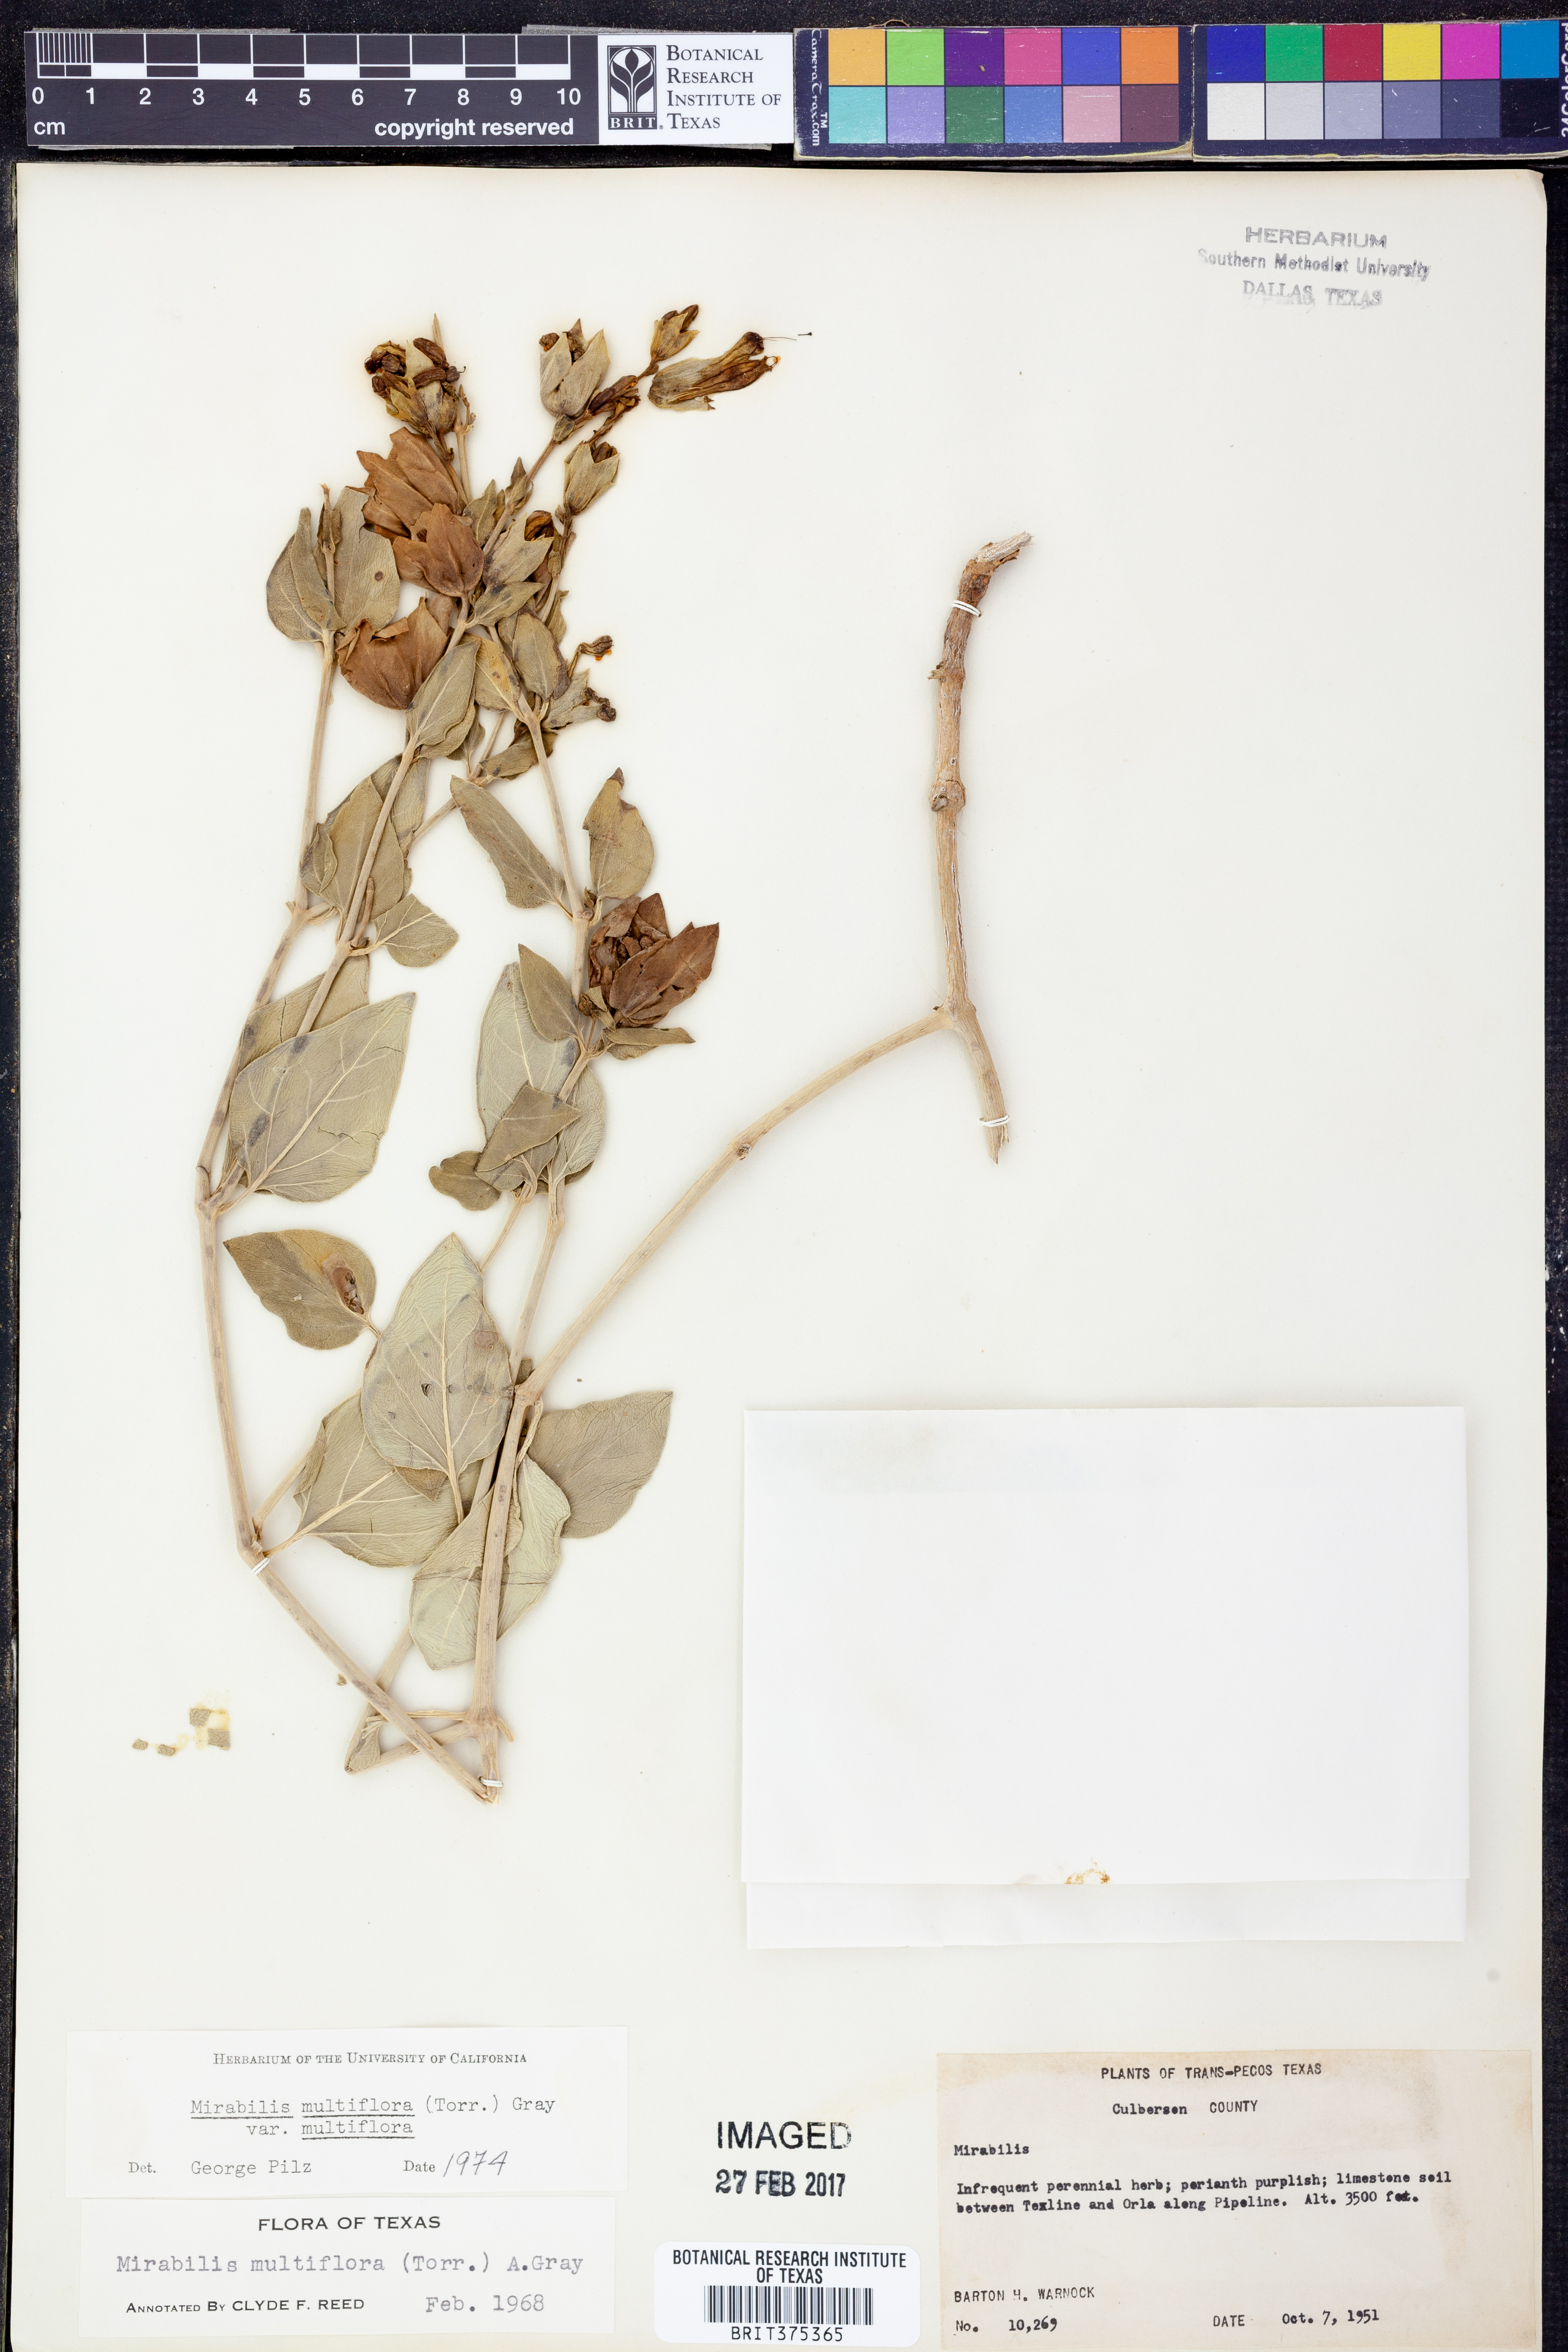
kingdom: Plantae
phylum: Tracheophyta
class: Magnoliopsida
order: Caryophyllales
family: Nyctaginaceae
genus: Mirabilis
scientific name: Mirabilis multiflora
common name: Froebel's four-o'clock
